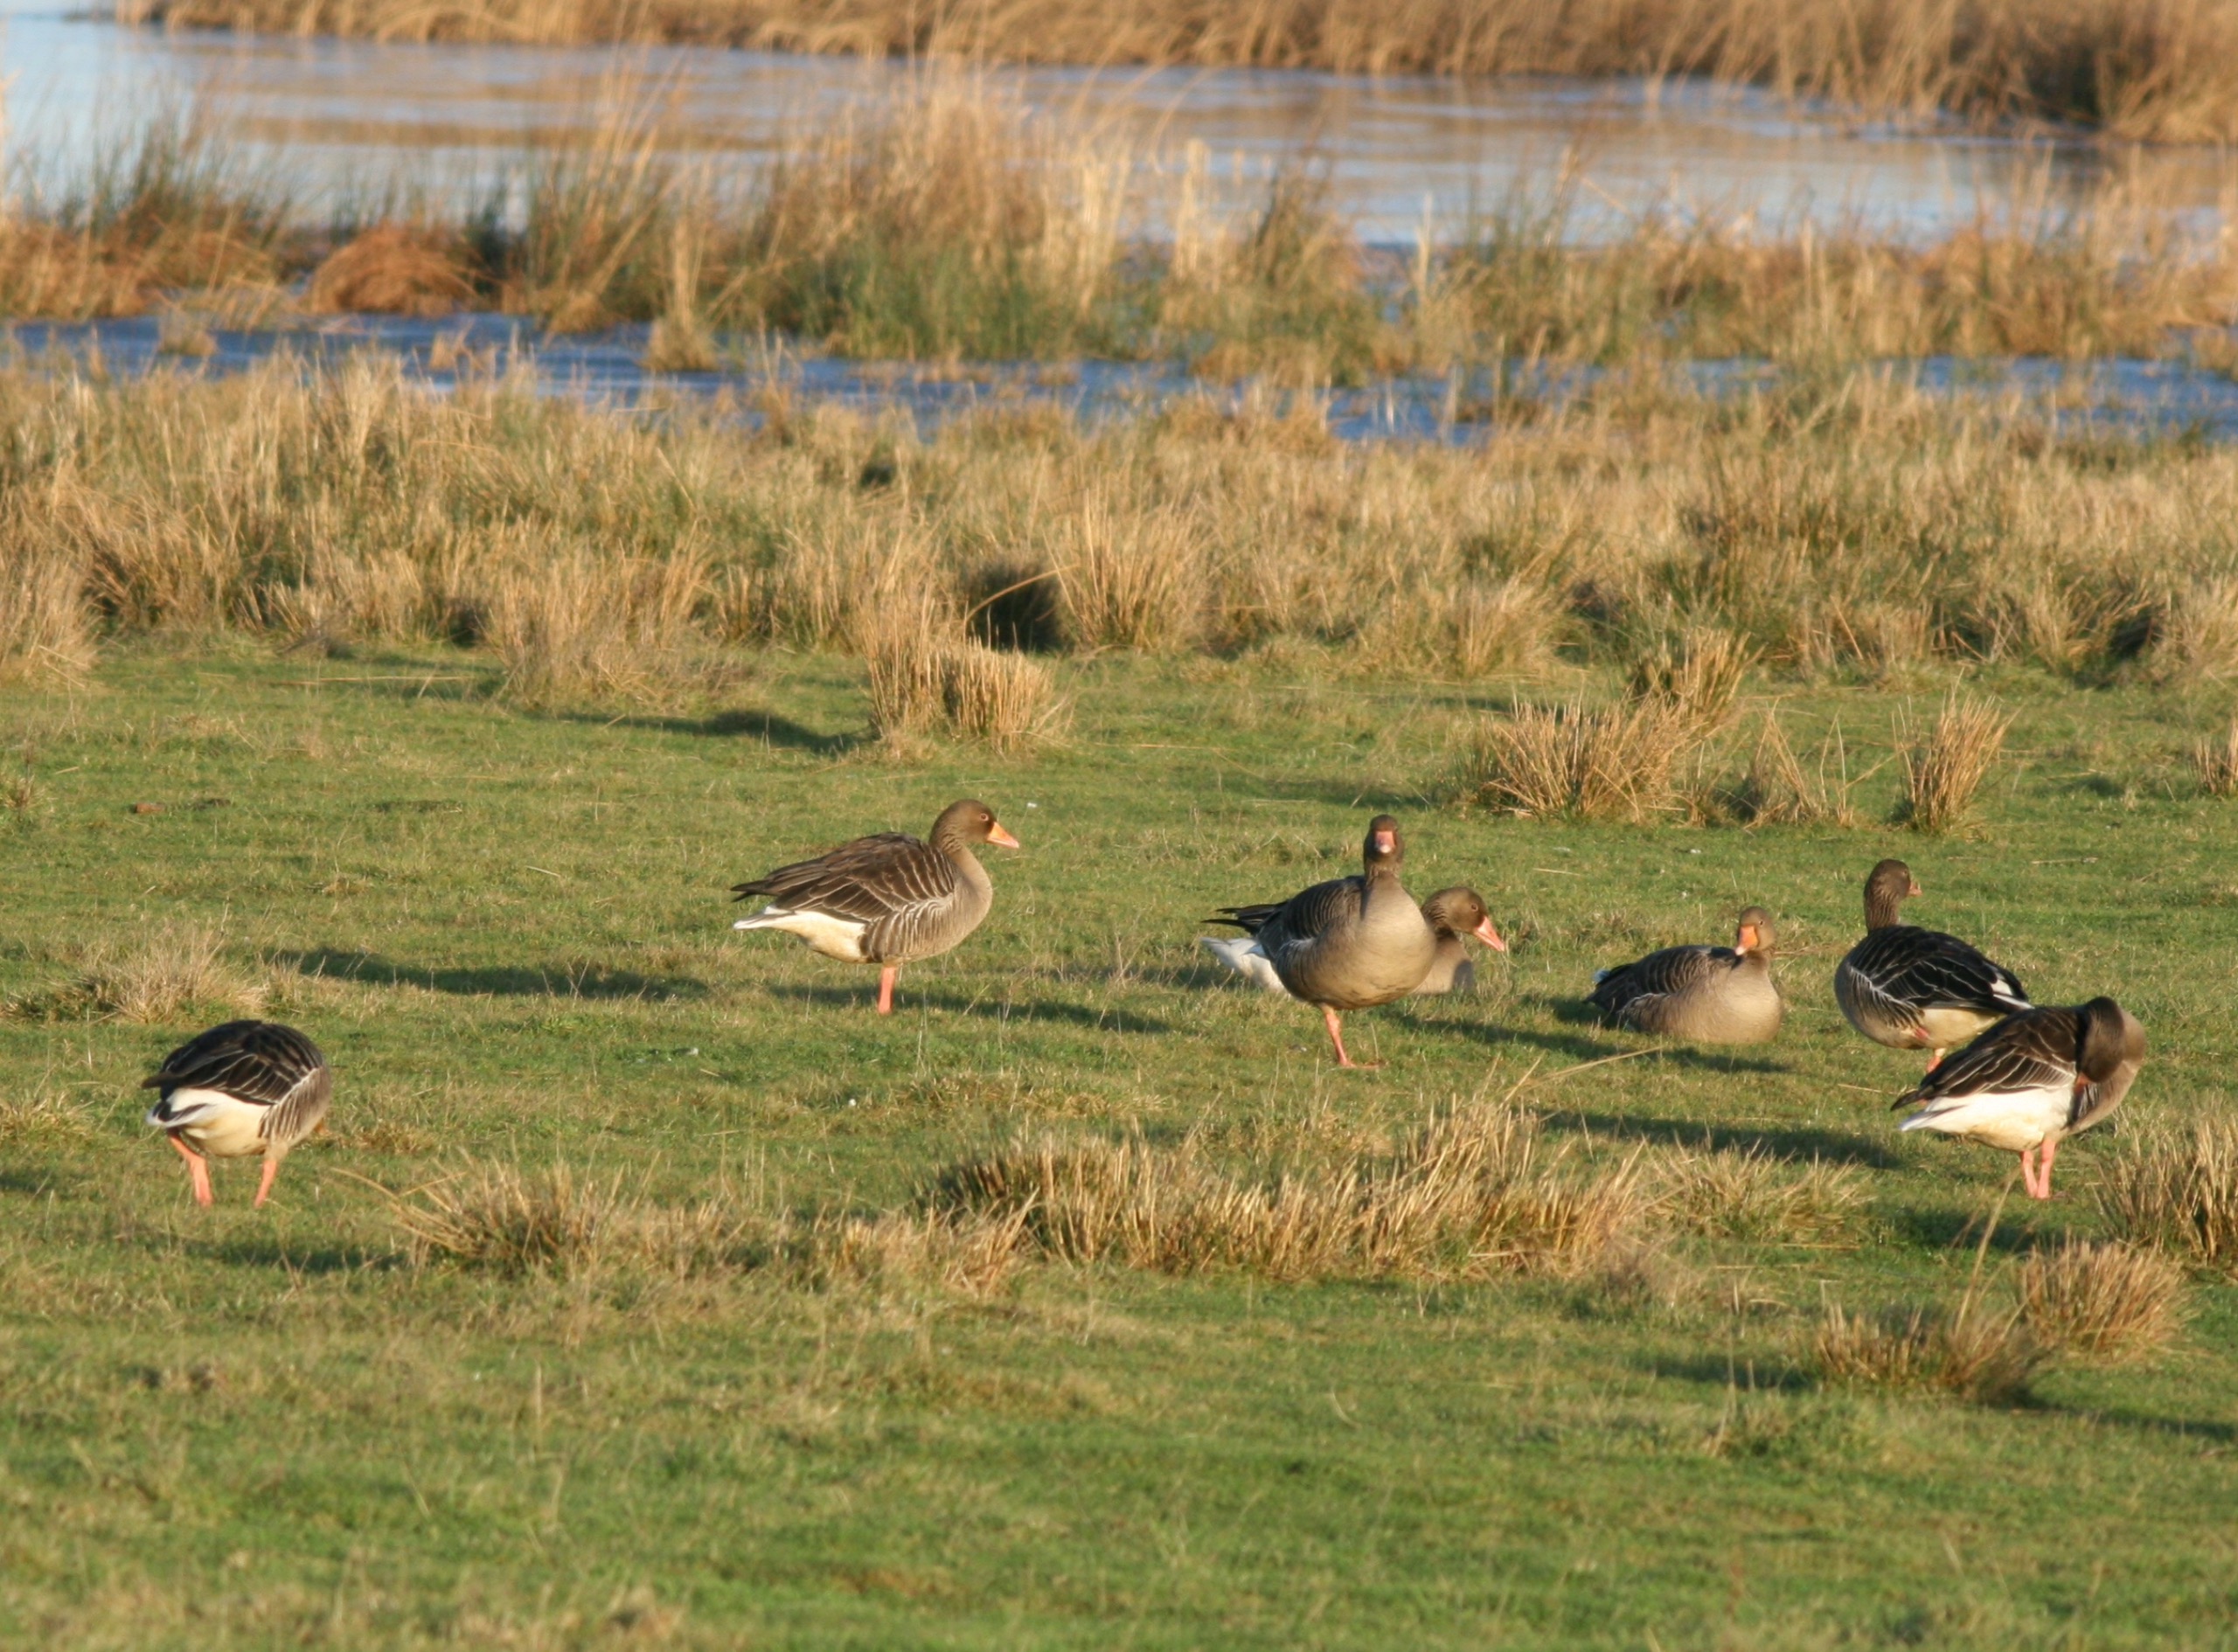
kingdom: Animalia
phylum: Chordata
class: Aves
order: Anseriformes
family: Anatidae
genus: Anser
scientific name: Anser anser
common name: Grågås
